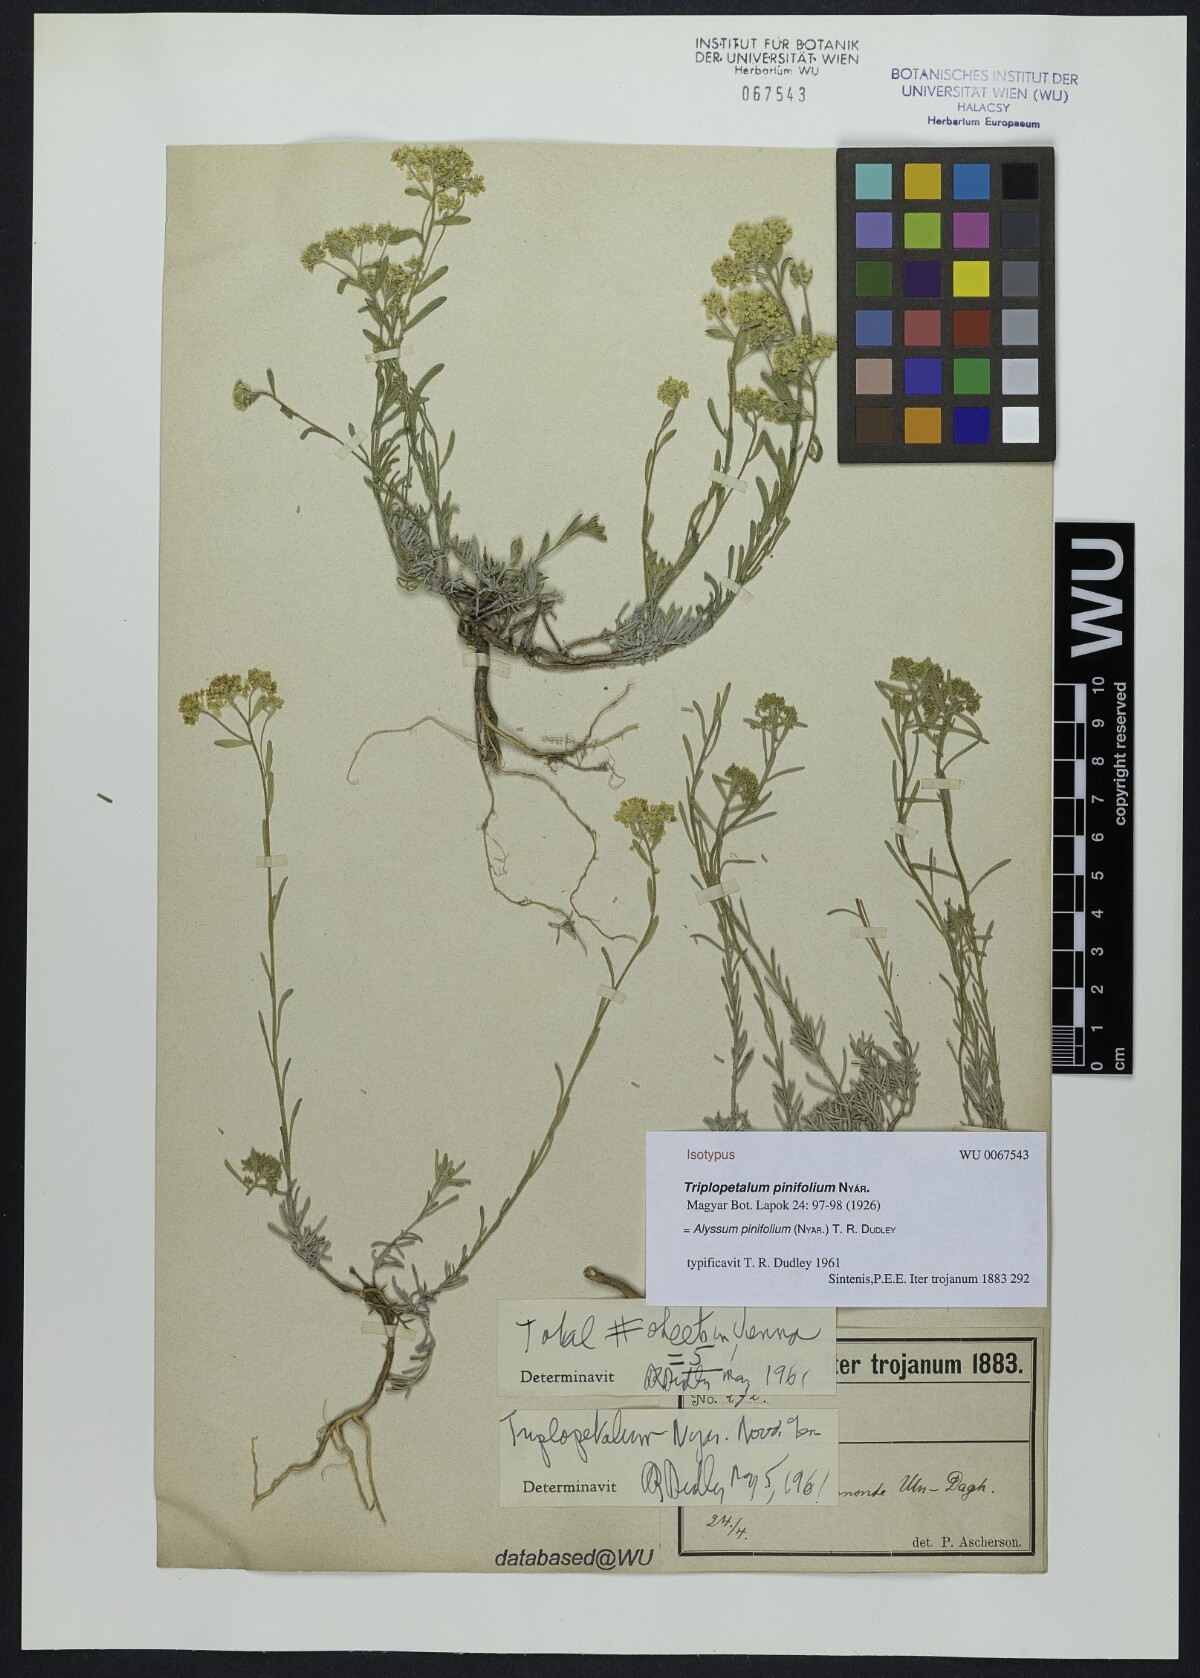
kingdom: Plantae
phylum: Tracheophyta
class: Magnoliopsida
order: Brassicales
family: Brassicaceae
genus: Odontarrhena
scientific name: Odontarrhena pinifolia
